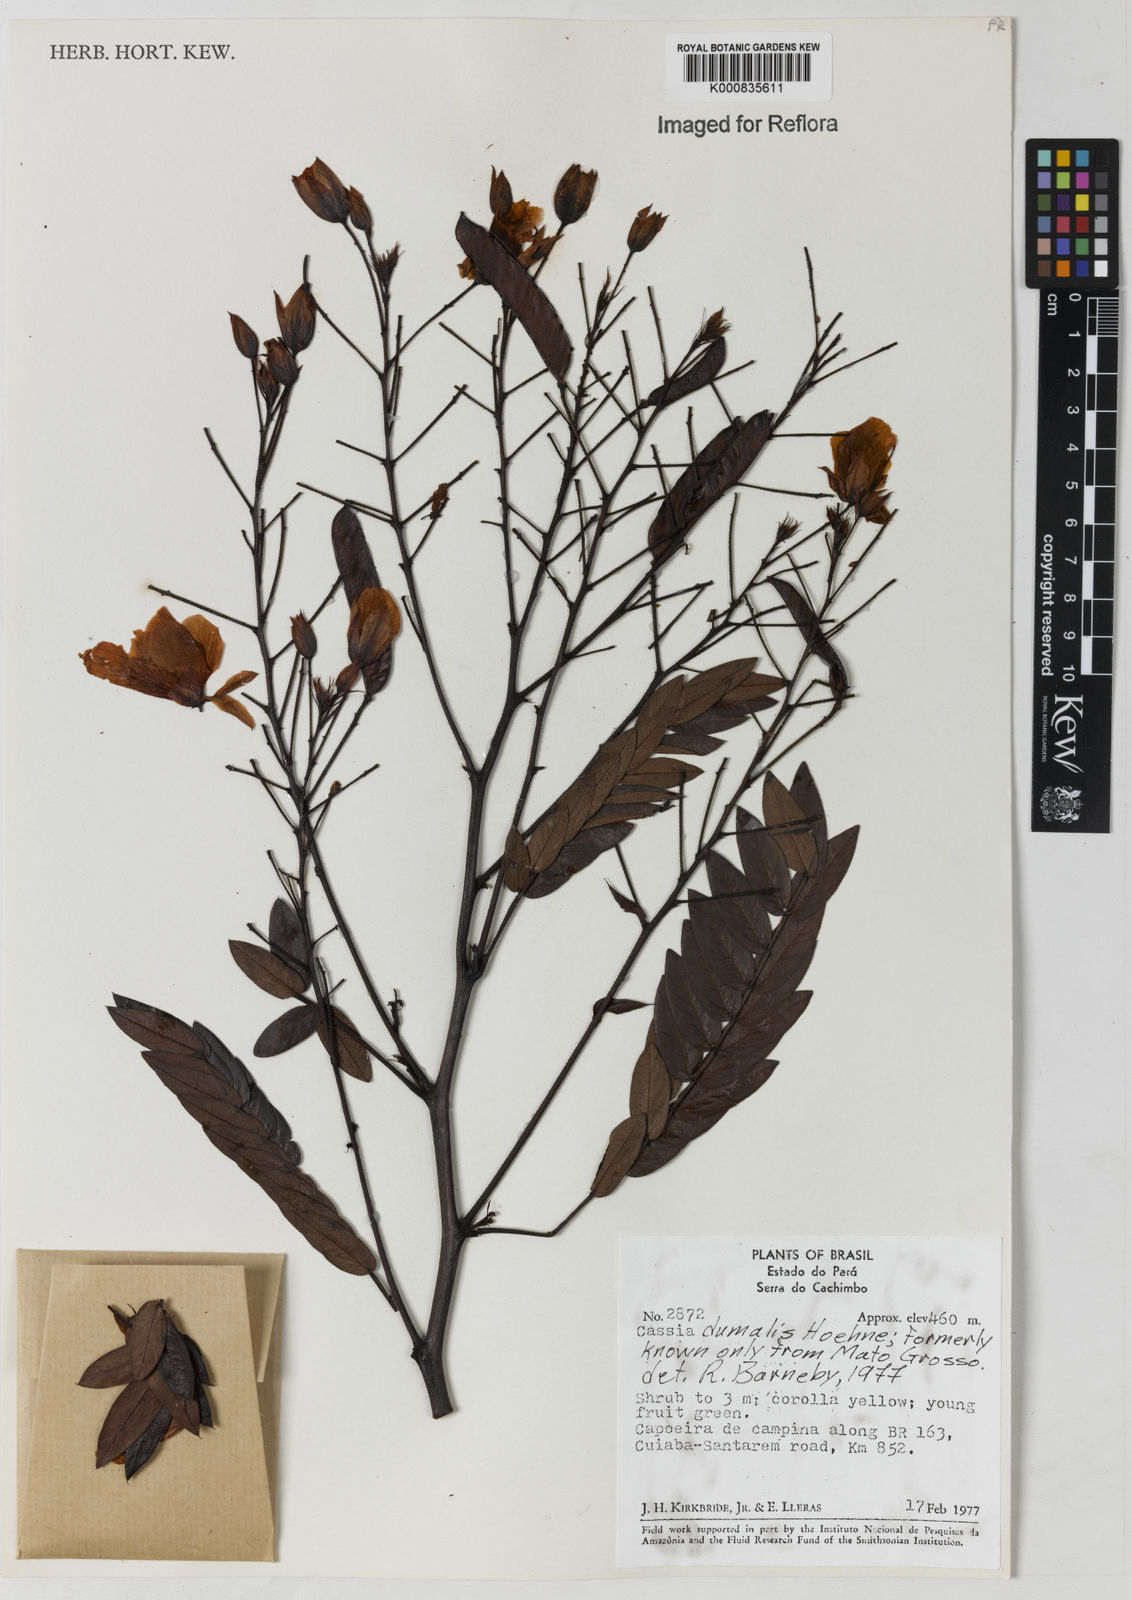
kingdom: Plantae
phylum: Tracheophyta
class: Magnoliopsida
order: Fabales
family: Fabaceae
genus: Chamaecrista
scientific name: Chamaecrista dumalis
